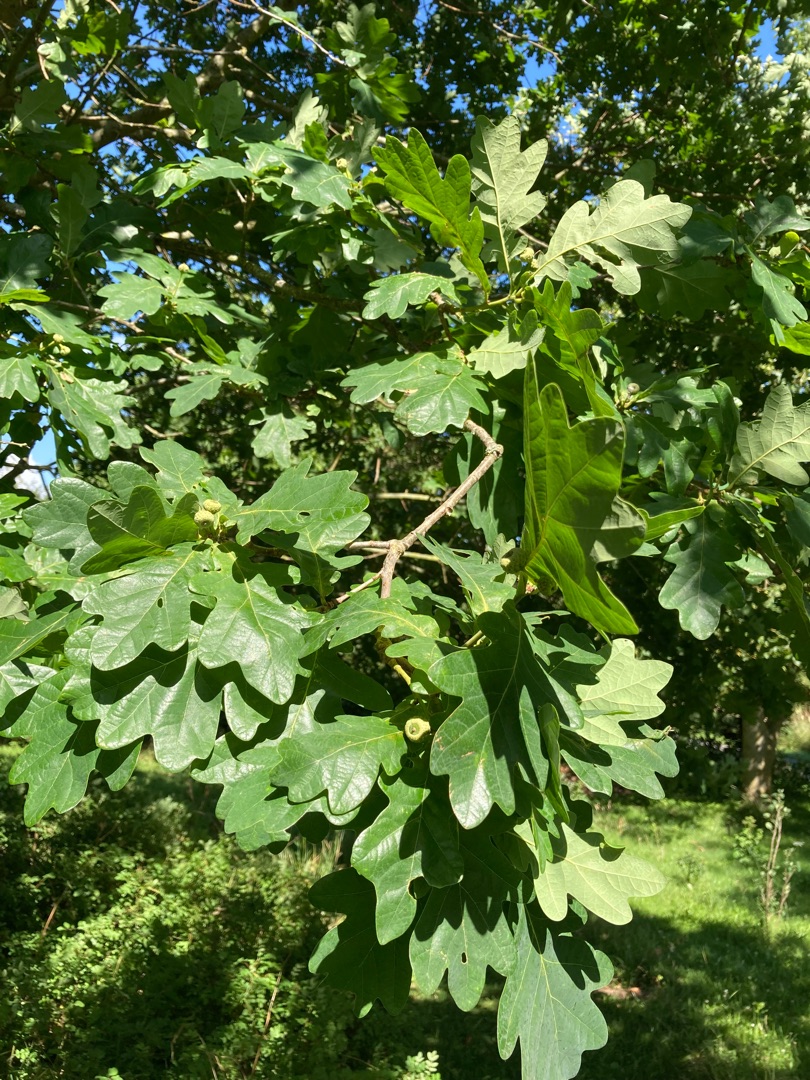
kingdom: Plantae
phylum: Tracheophyta
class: Magnoliopsida
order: Fagales
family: Fagaceae
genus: Quercus
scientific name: Quercus robur
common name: Stilk-eg/almindelig eg
